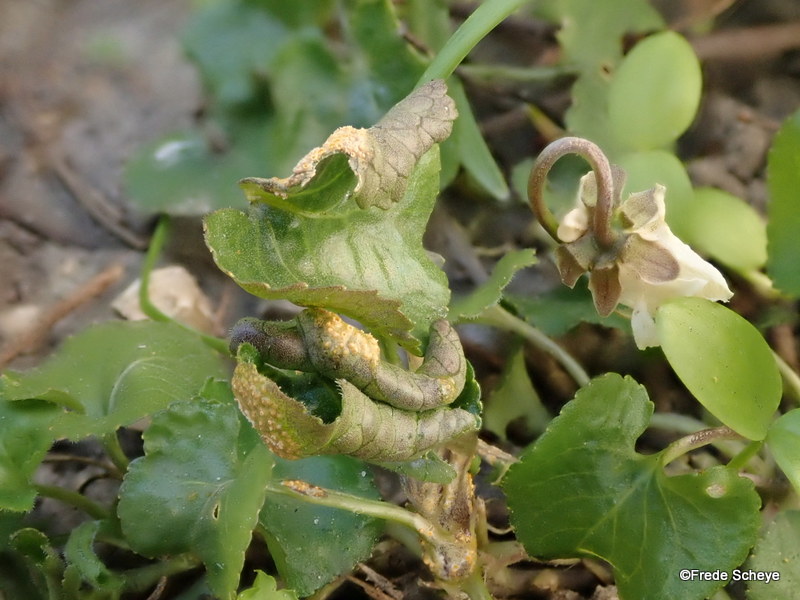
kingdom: Fungi
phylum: Basidiomycota
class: Pucciniomycetes
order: Pucciniales
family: Pucciniaceae
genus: Puccinia
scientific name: Puccinia violae
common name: viol-tvecellerust
